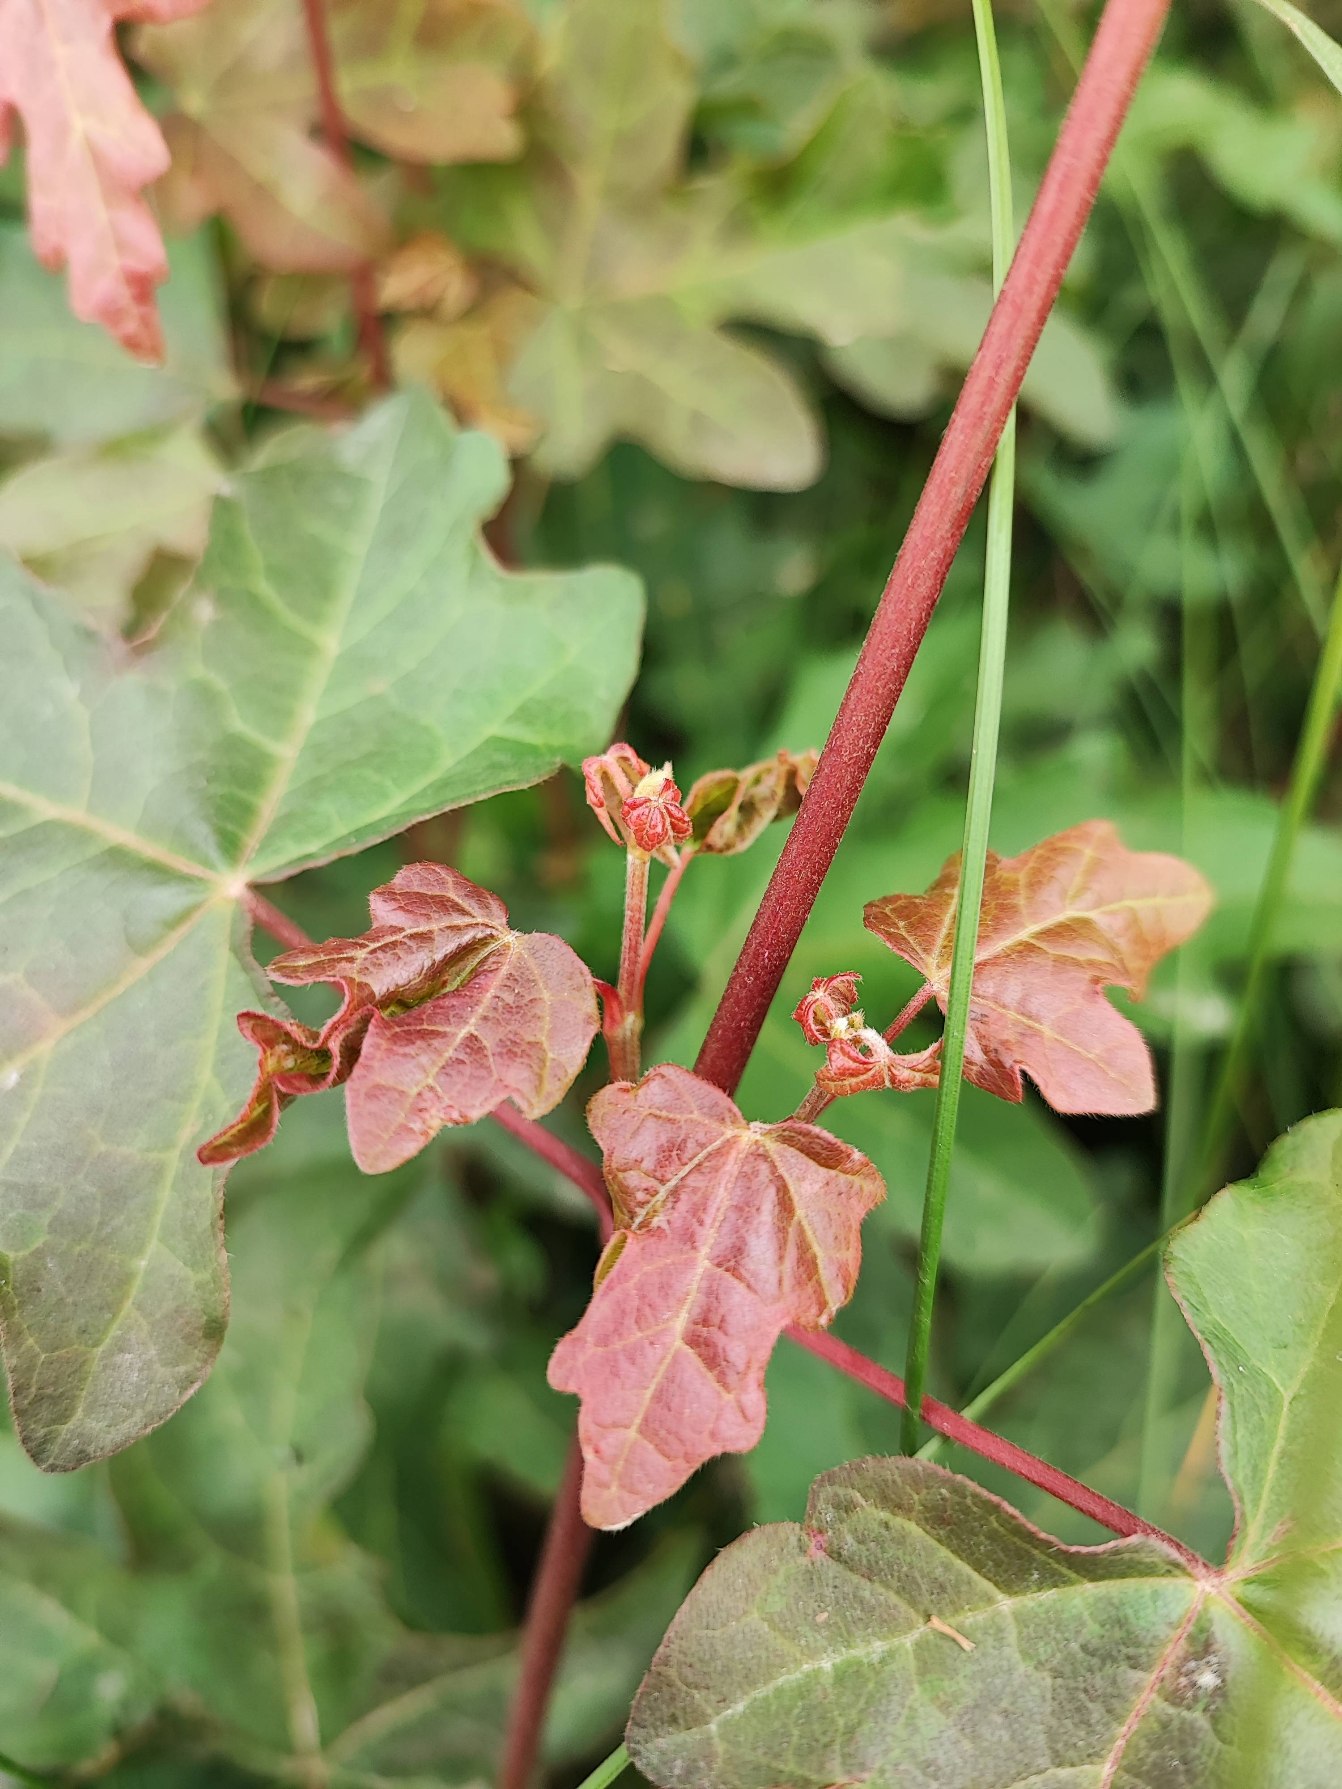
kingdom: Animalia
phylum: Arthropoda
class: Insecta
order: Diptera
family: Cecidomyiidae
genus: Dasineura
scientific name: Dasineura rubella
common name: Navrkrusegalmyg
